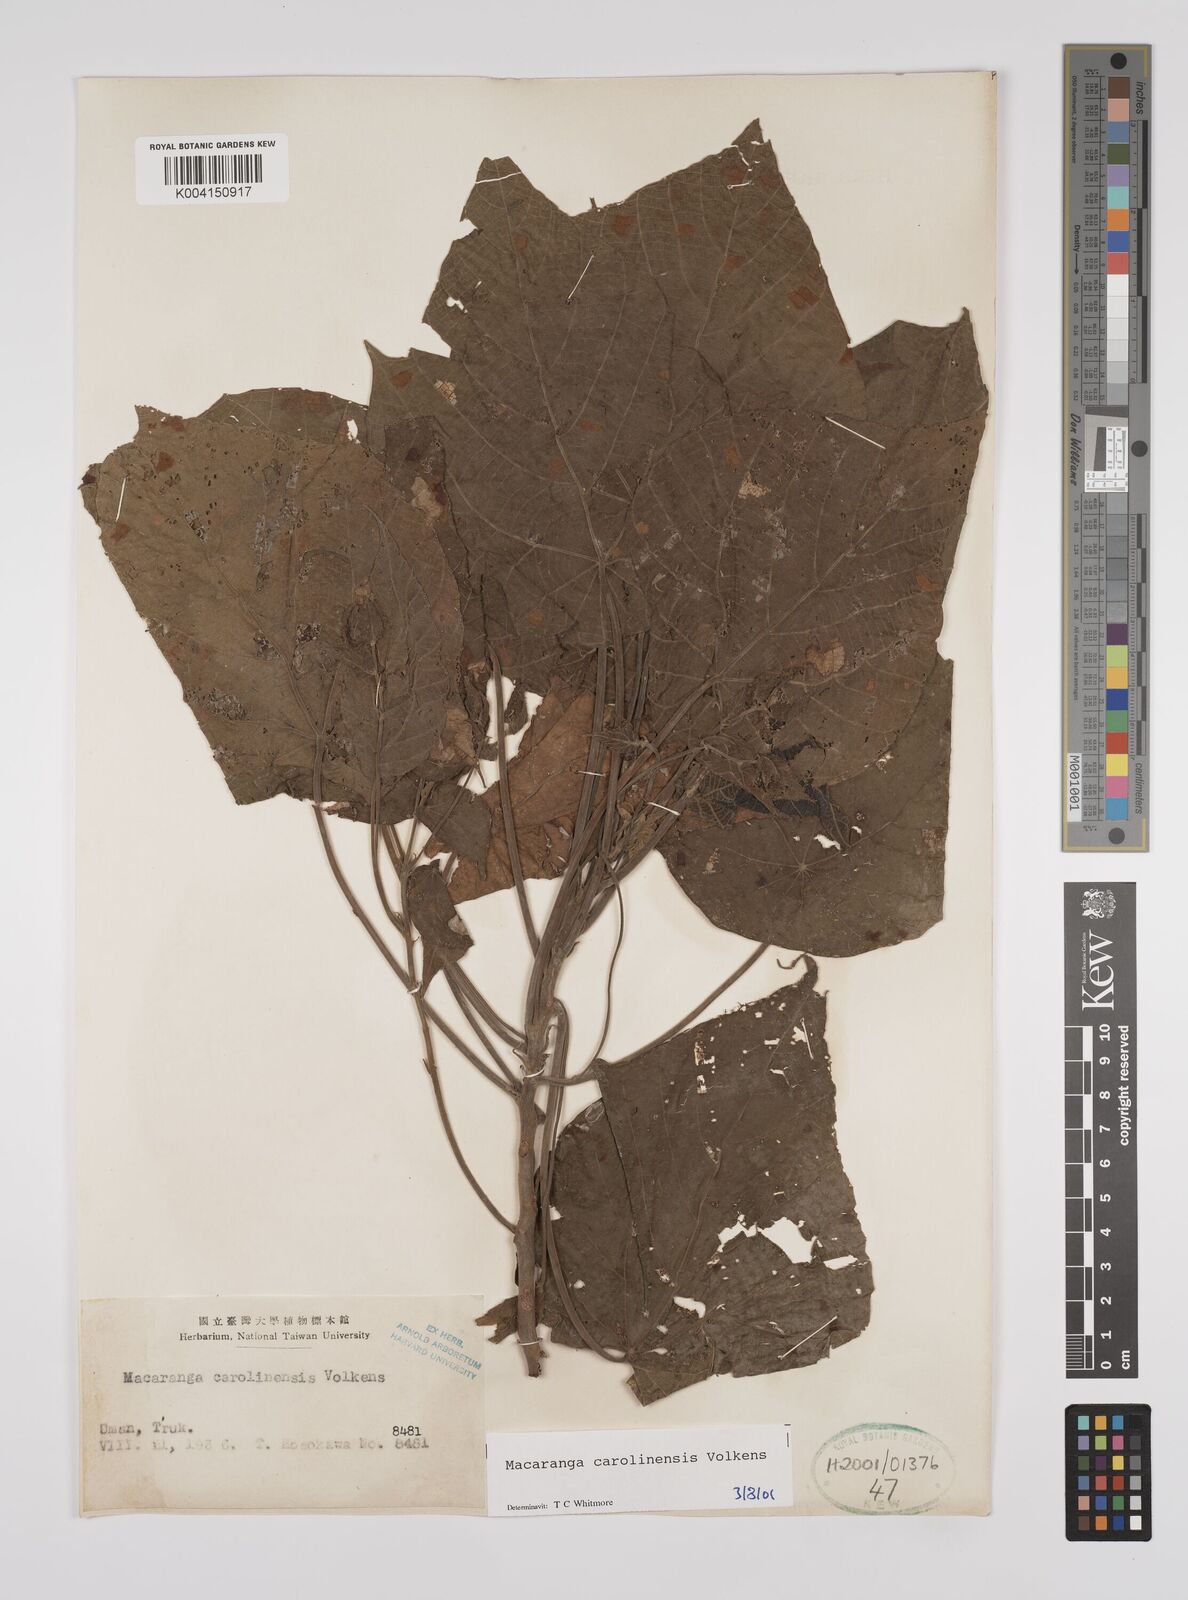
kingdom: Plantae
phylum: Tracheophyta
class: Magnoliopsida
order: Malpighiales
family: Euphorbiaceae
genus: Macaranga
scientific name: Macaranga carolinensis
